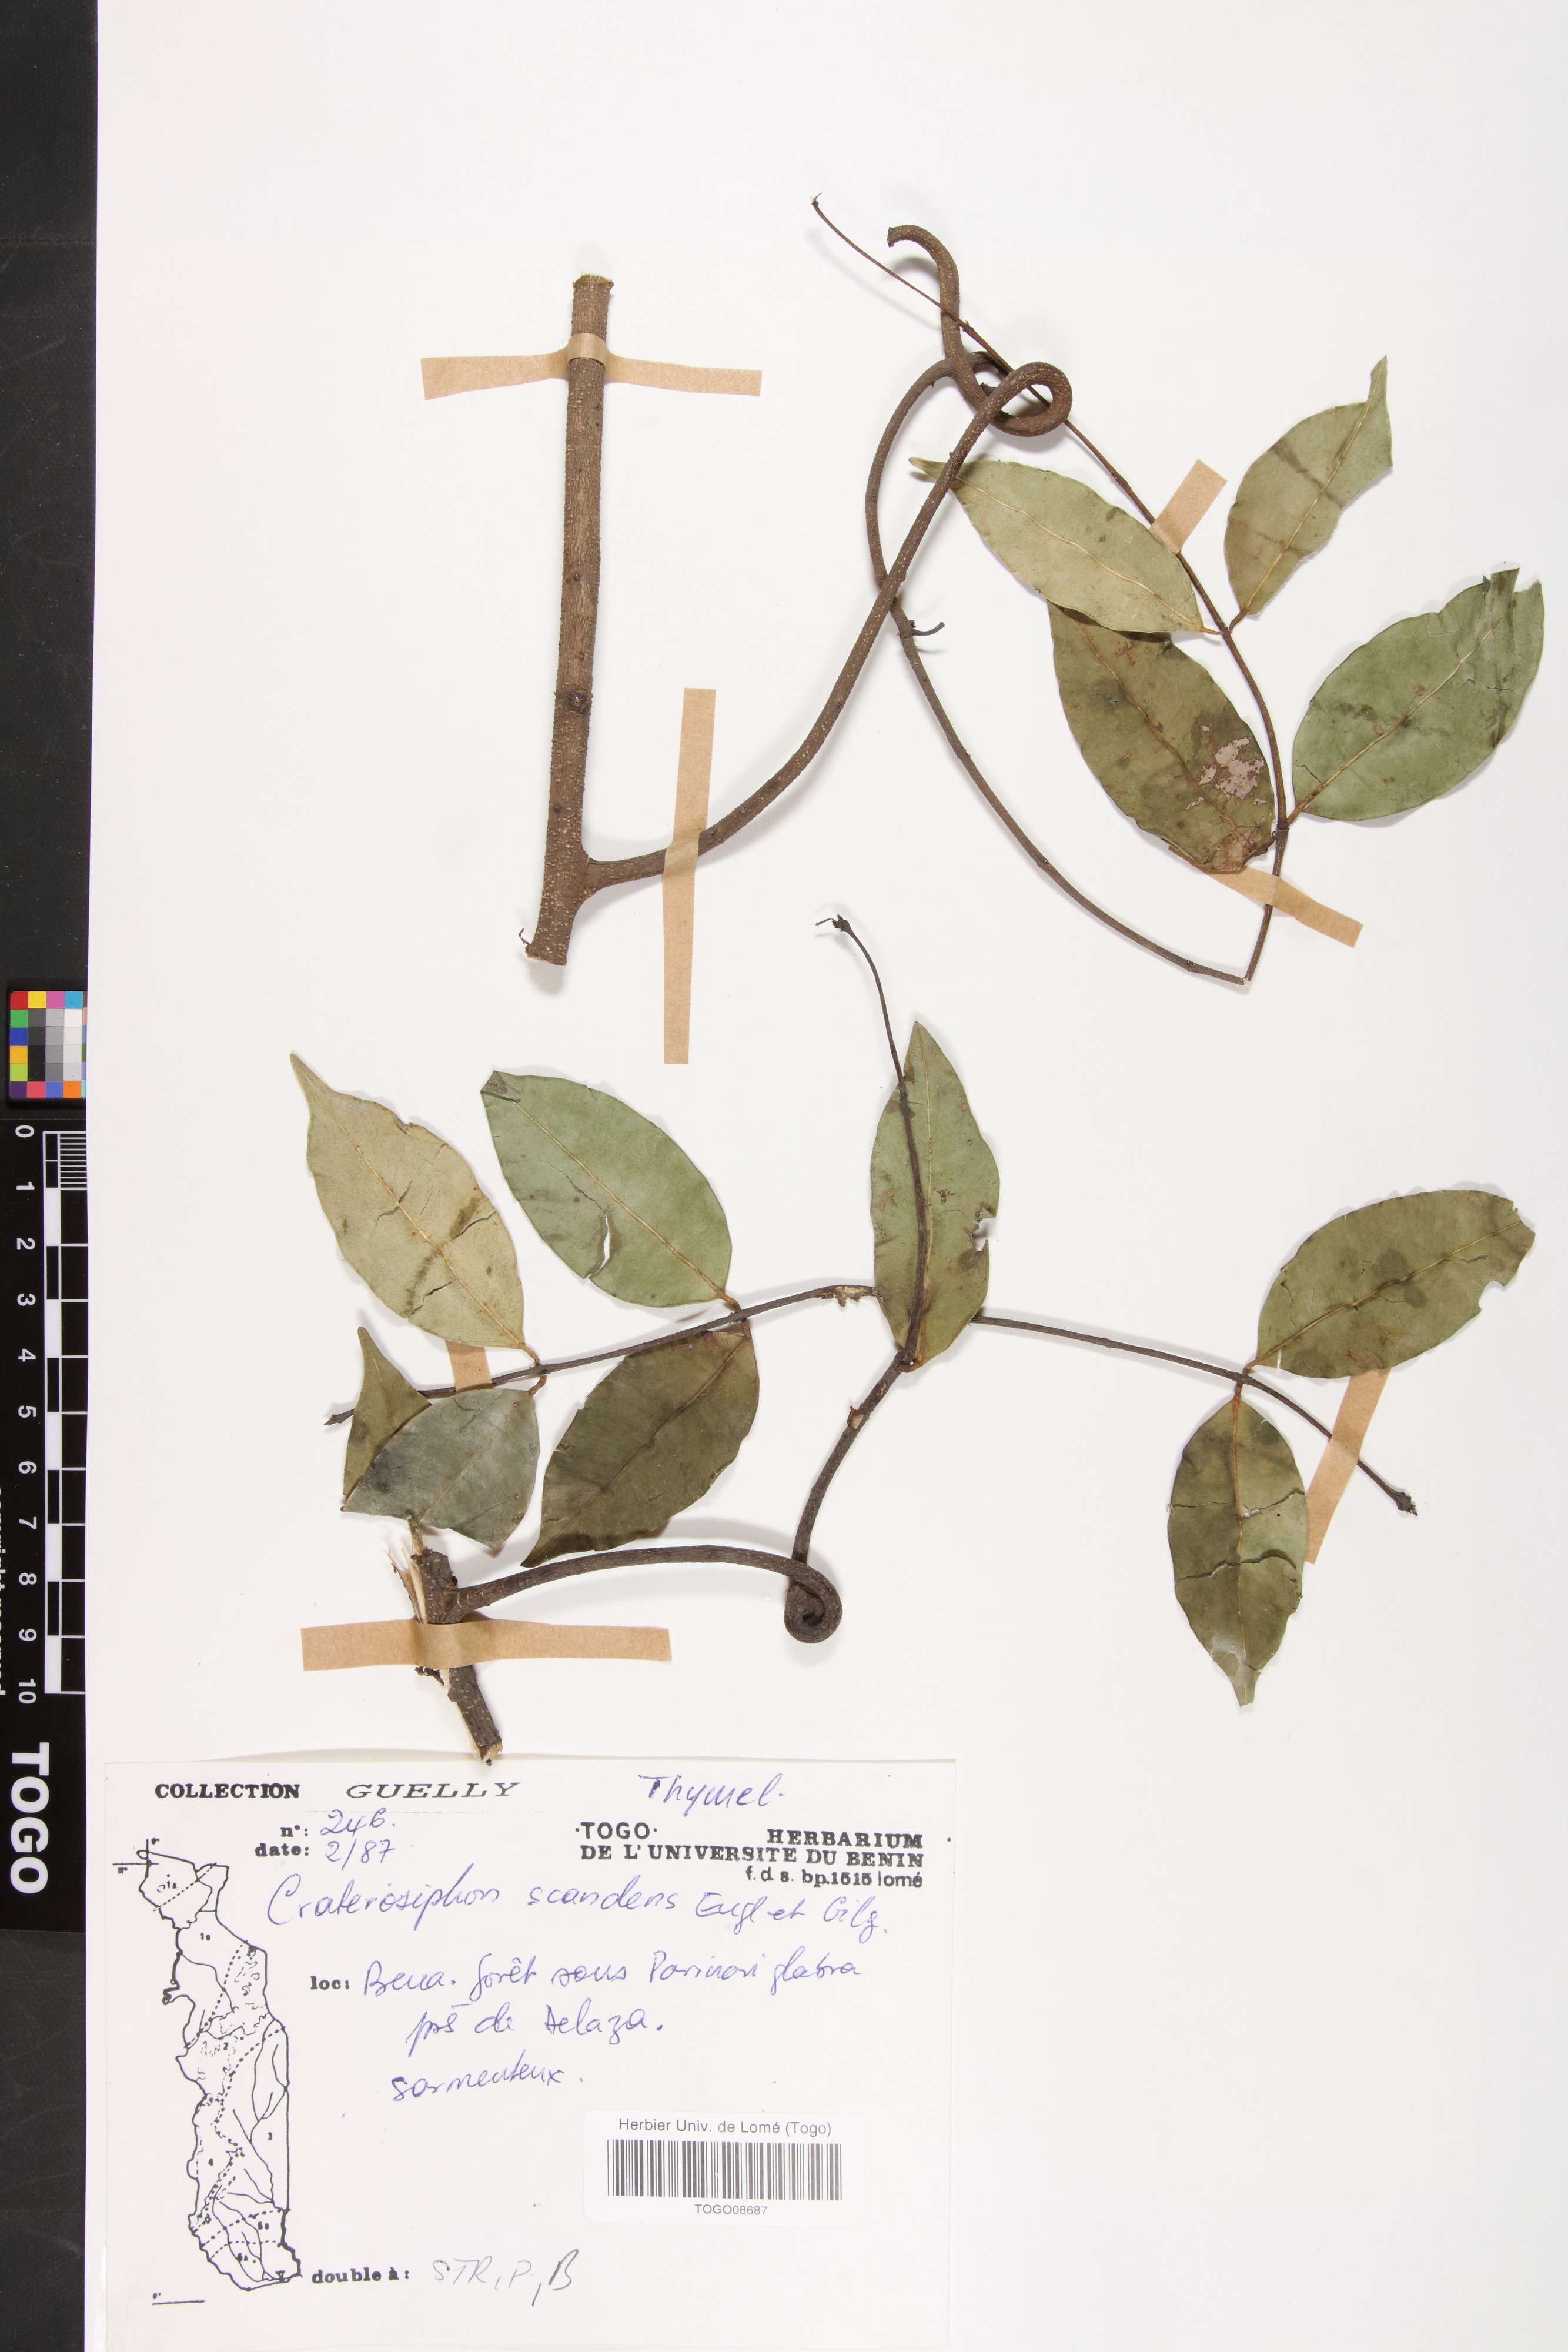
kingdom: Plantae
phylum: Tracheophyta
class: Magnoliopsida
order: Malvales
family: Thymelaeaceae
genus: Craterosiphon
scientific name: Craterosiphon scandens
